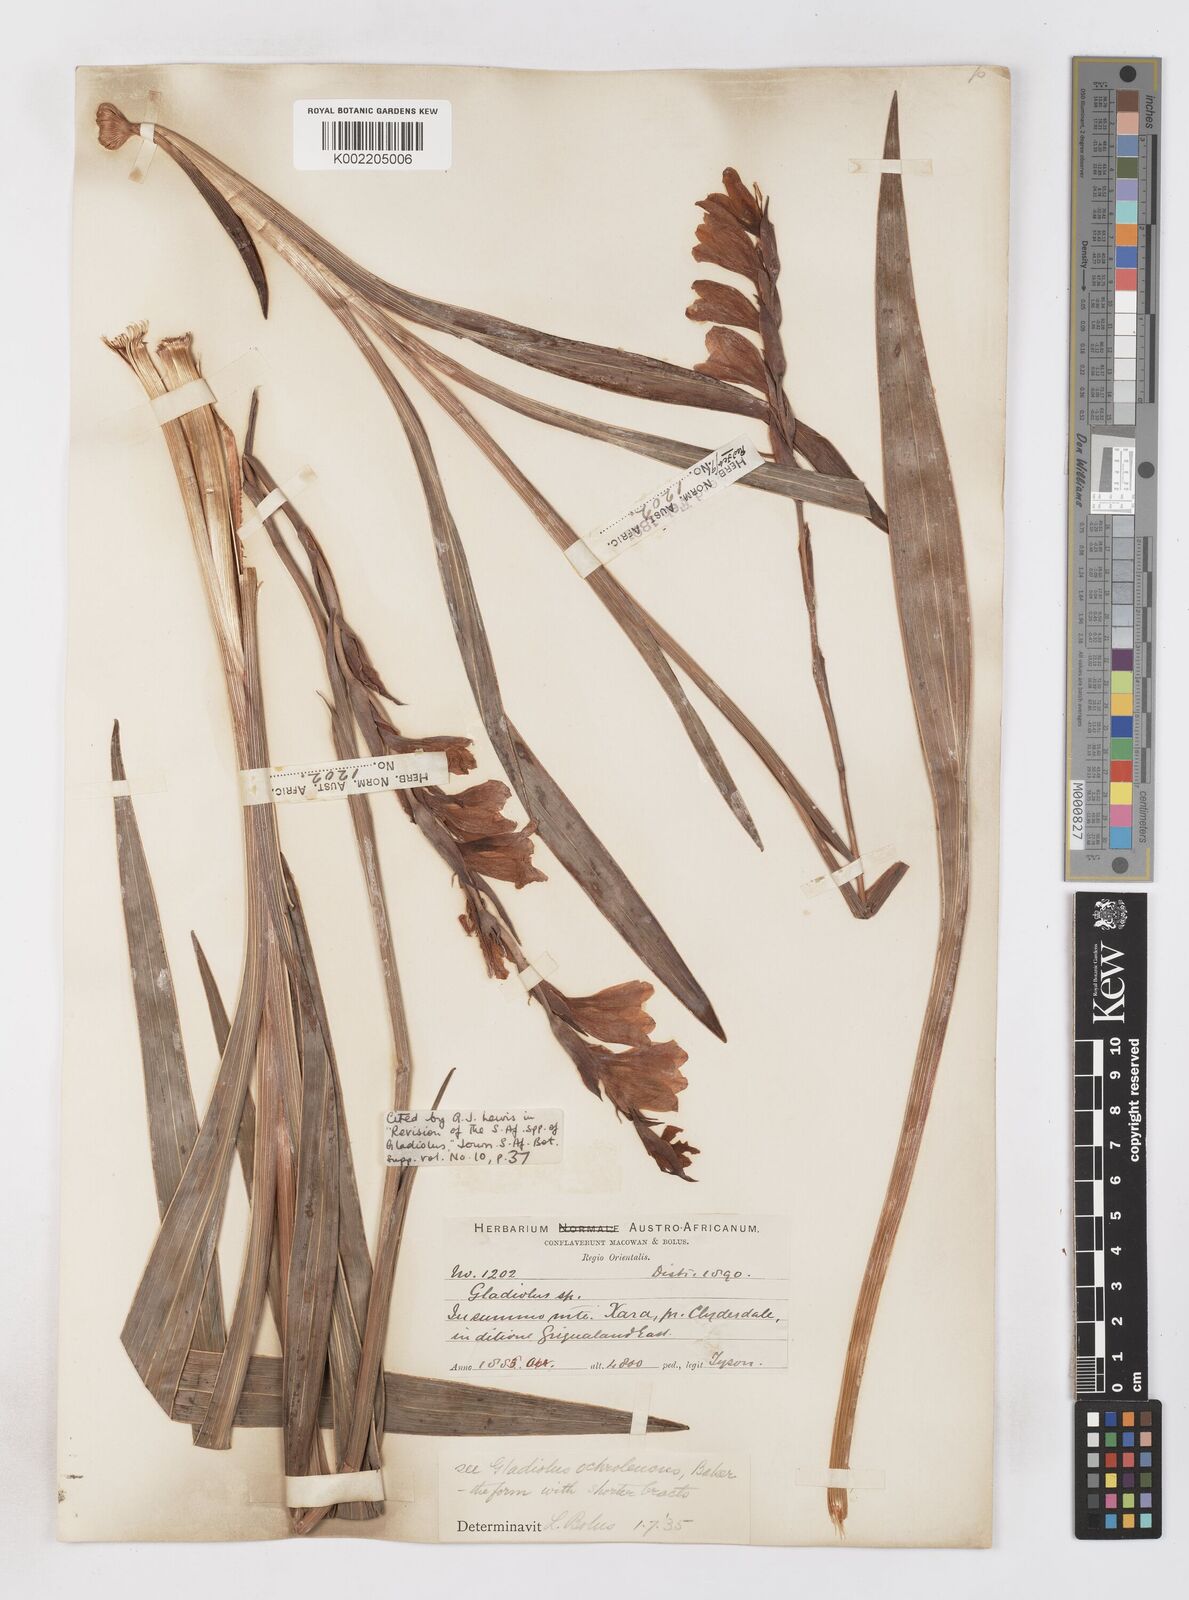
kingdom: Plantae
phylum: Tracheophyta
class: Liliopsida
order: Asparagales
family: Iridaceae
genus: Gladiolus
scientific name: Gladiolus ochroleucus
